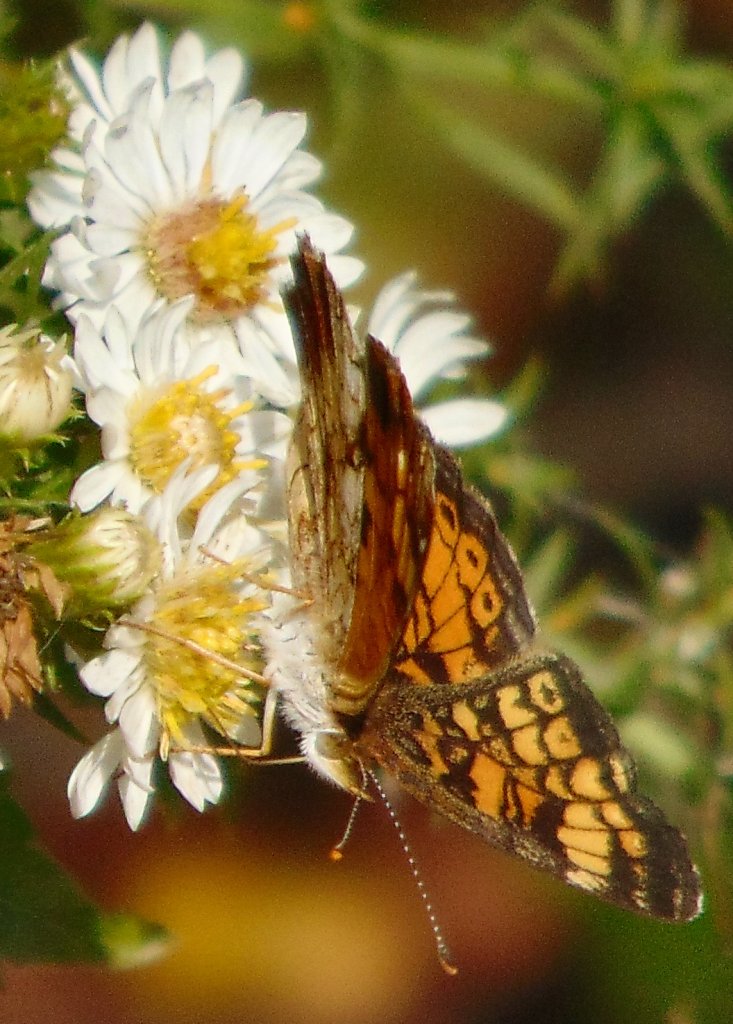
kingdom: Animalia
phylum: Arthropoda
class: Insecta
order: Lepidoptera
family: Nymphalidae
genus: Phyciodes
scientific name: Phyciodes tharos
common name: Pearl Crescent
